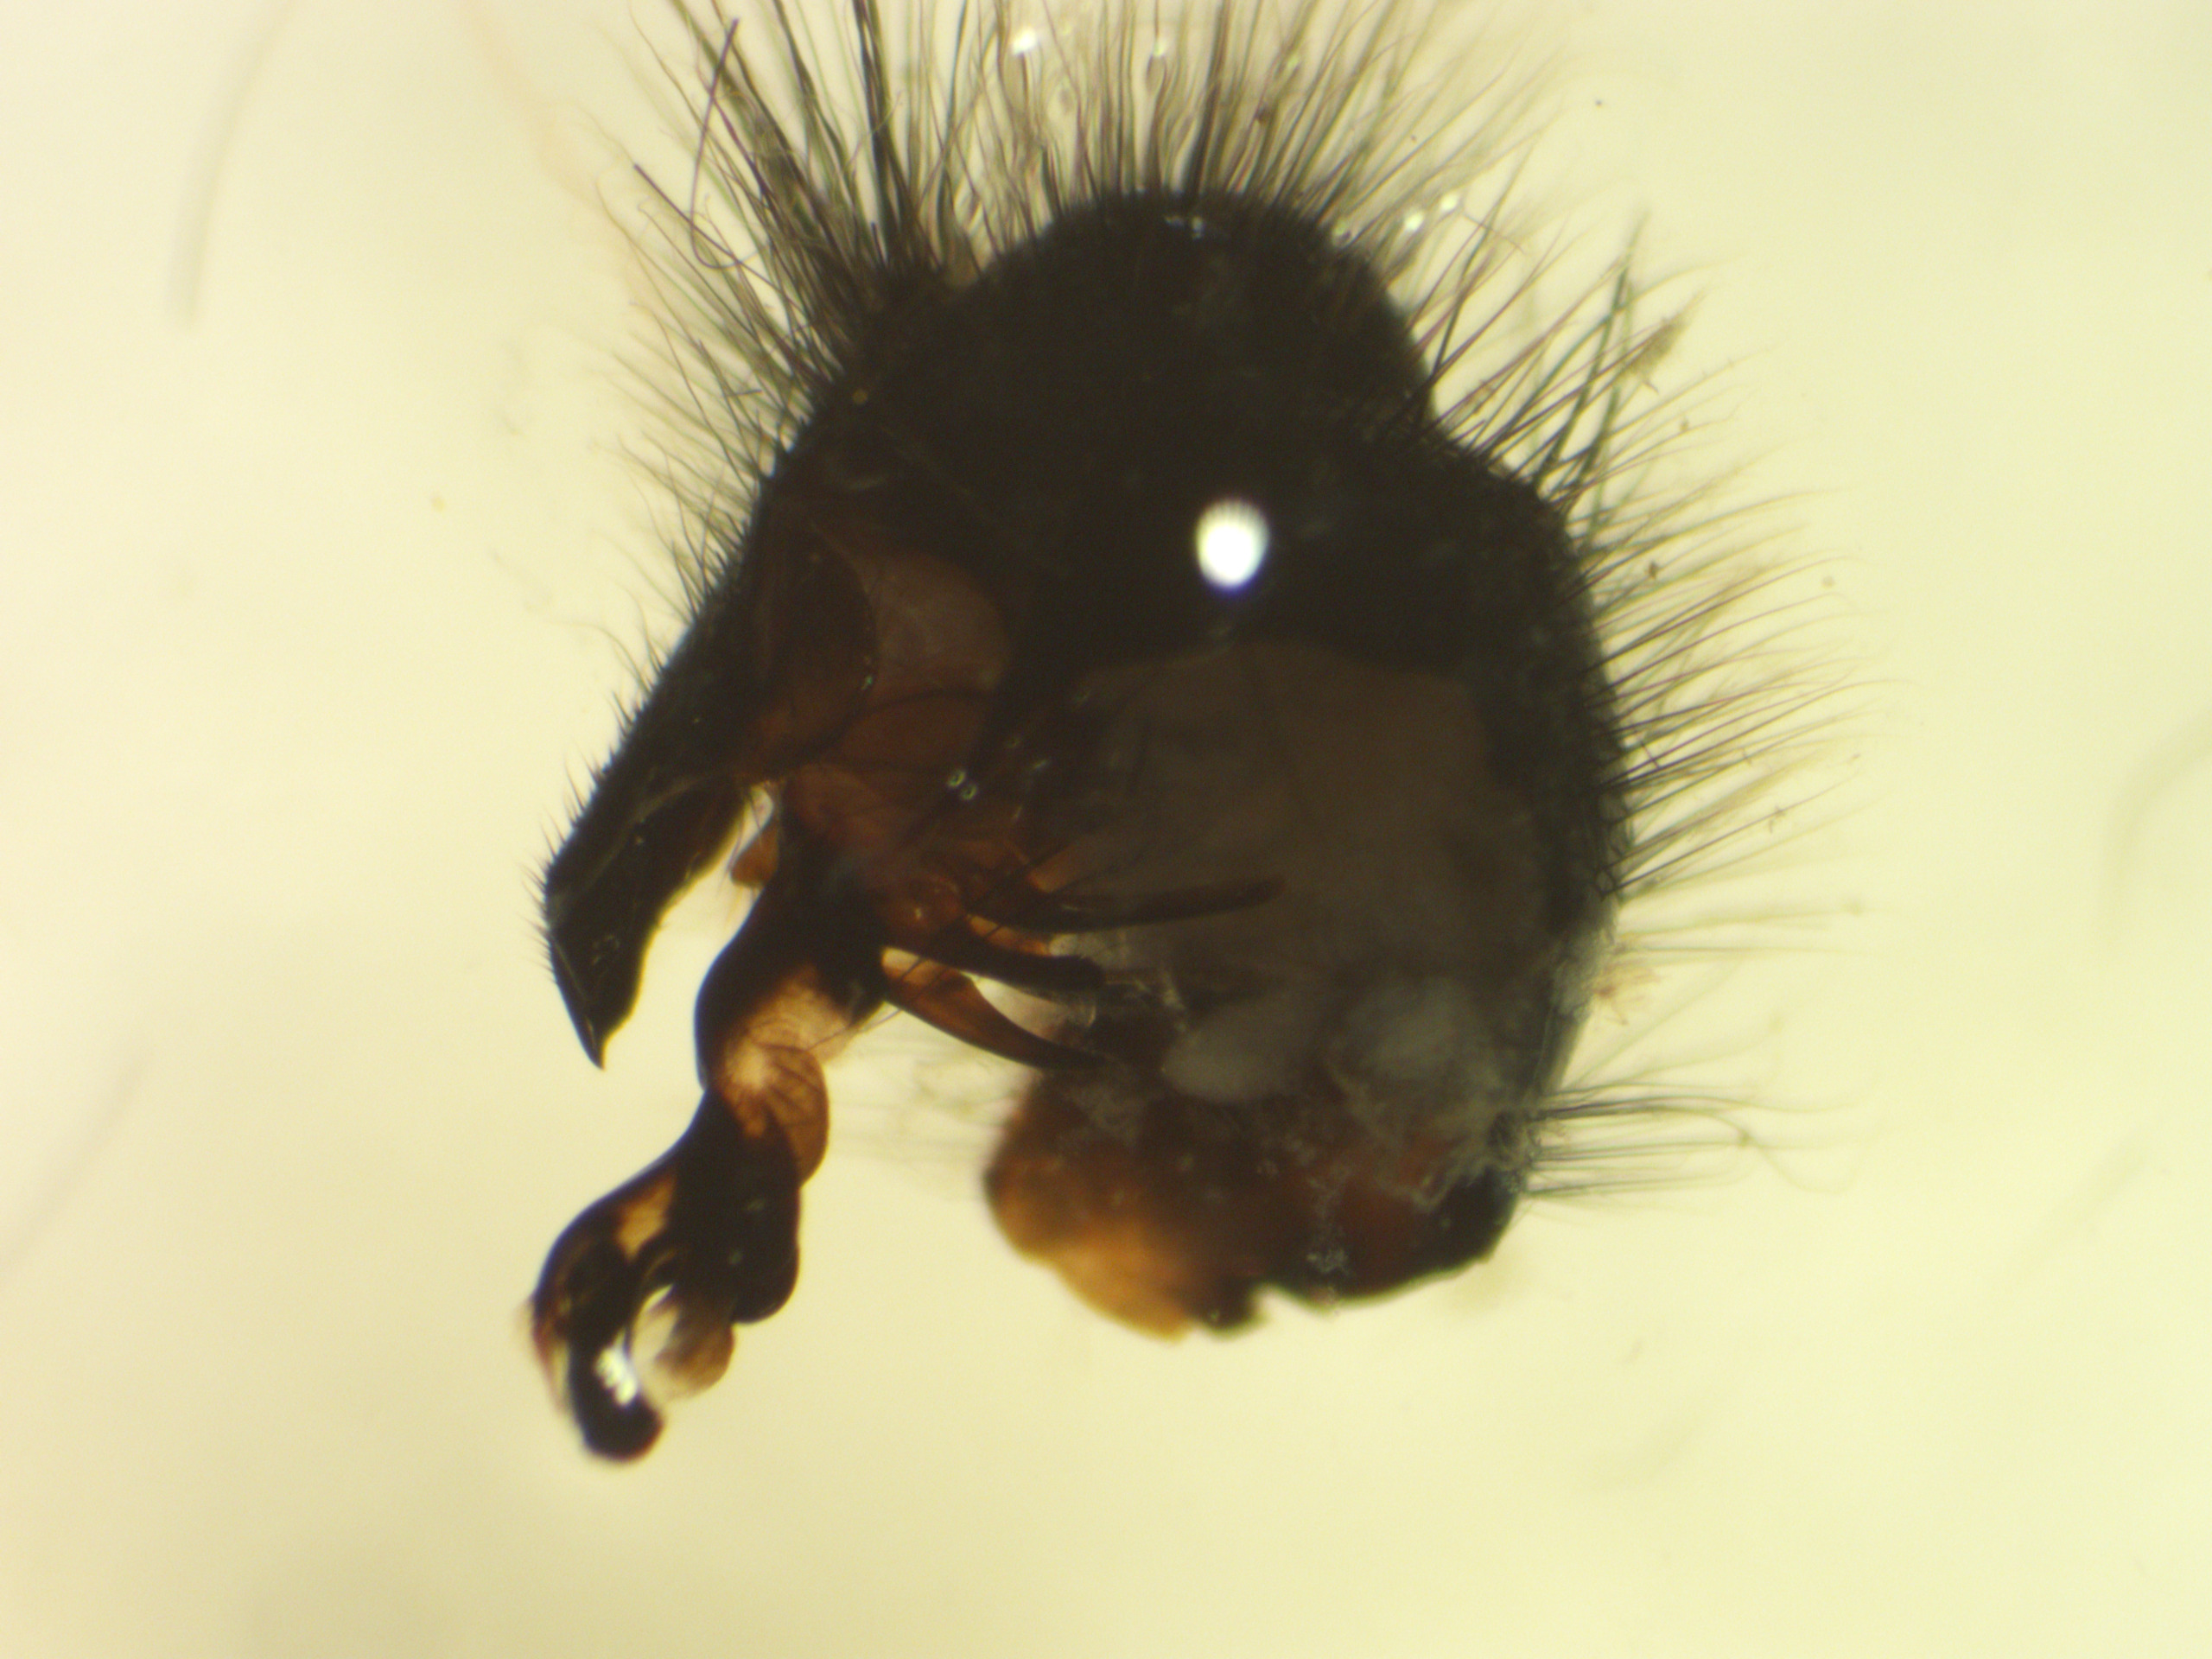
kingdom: Animalia
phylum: Arthropoda
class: Insecta
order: Diptera
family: Sarcophagidae
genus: Sarcophaga
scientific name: Sarcophaga lehmanni
